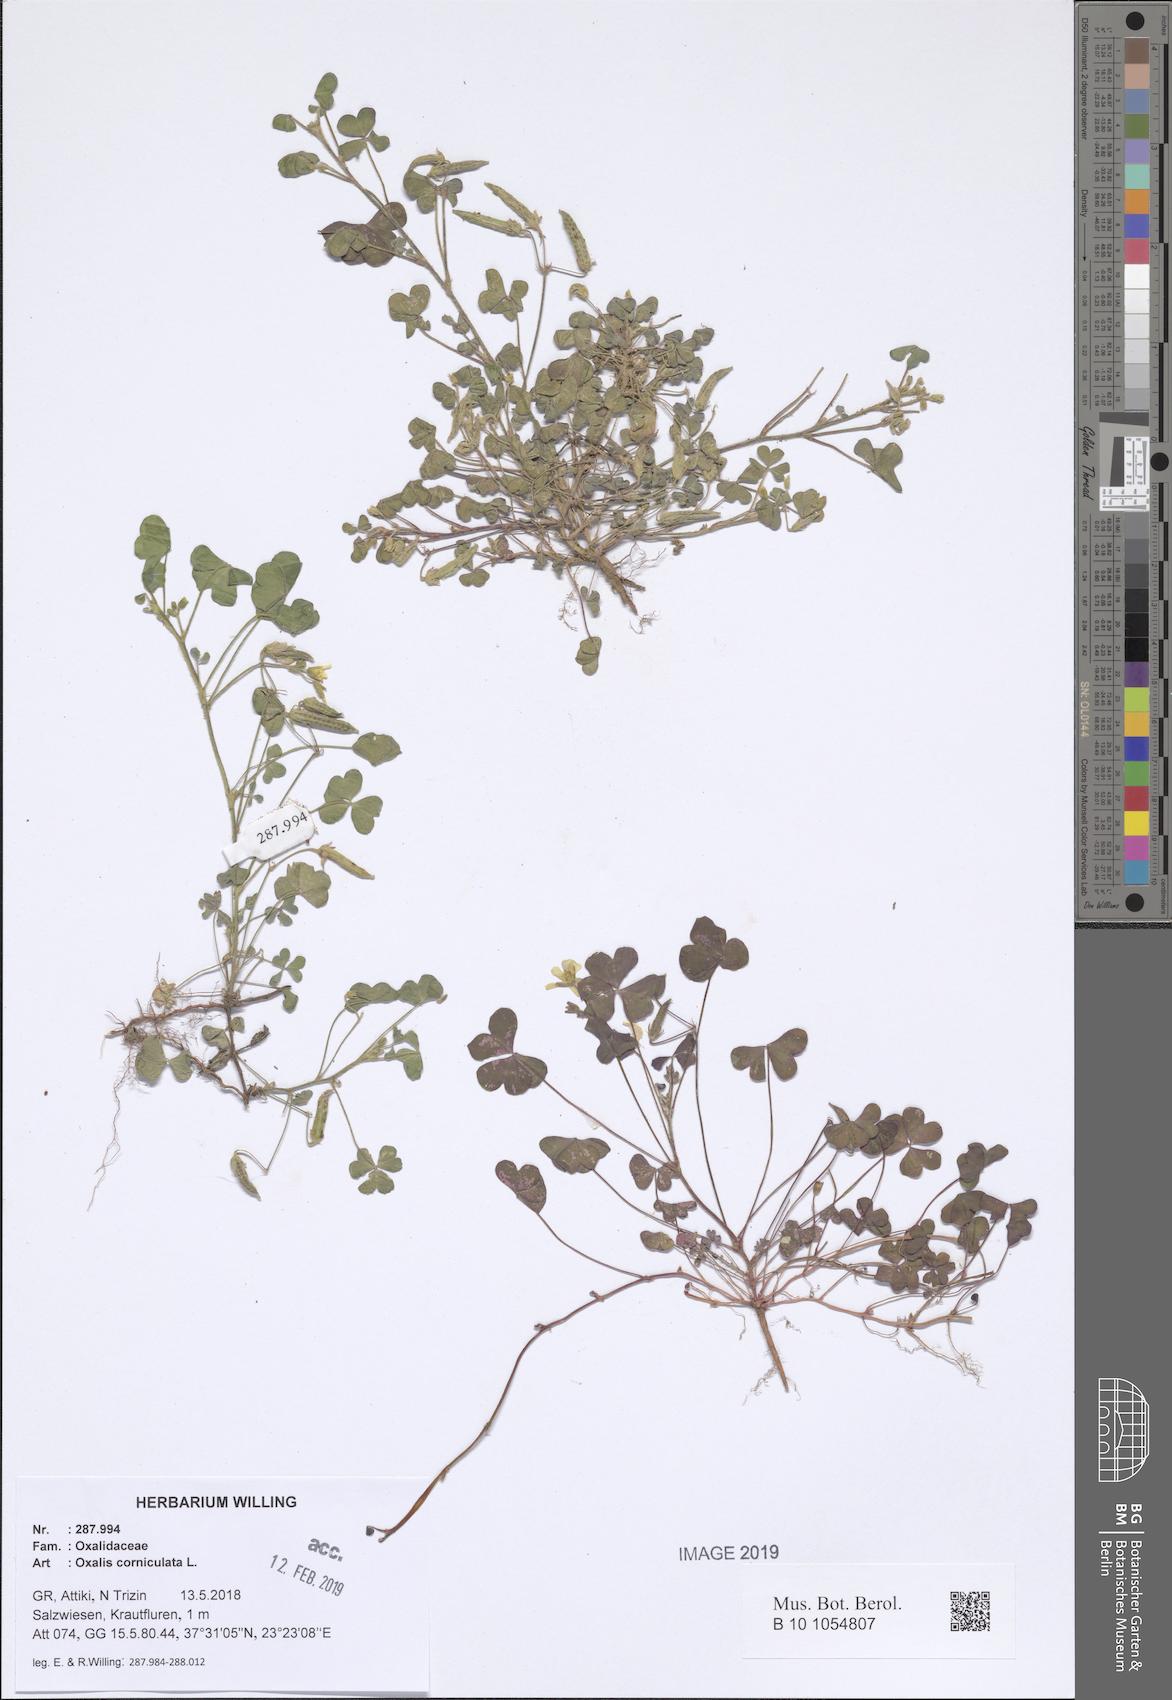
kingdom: Plantae
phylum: Tracheophyta
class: Magnoliopsida
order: Oxalidales
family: Oxalidaceae
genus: Oxalis
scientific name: Oxalis corniculata
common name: Procumbent yellow-sorrel
